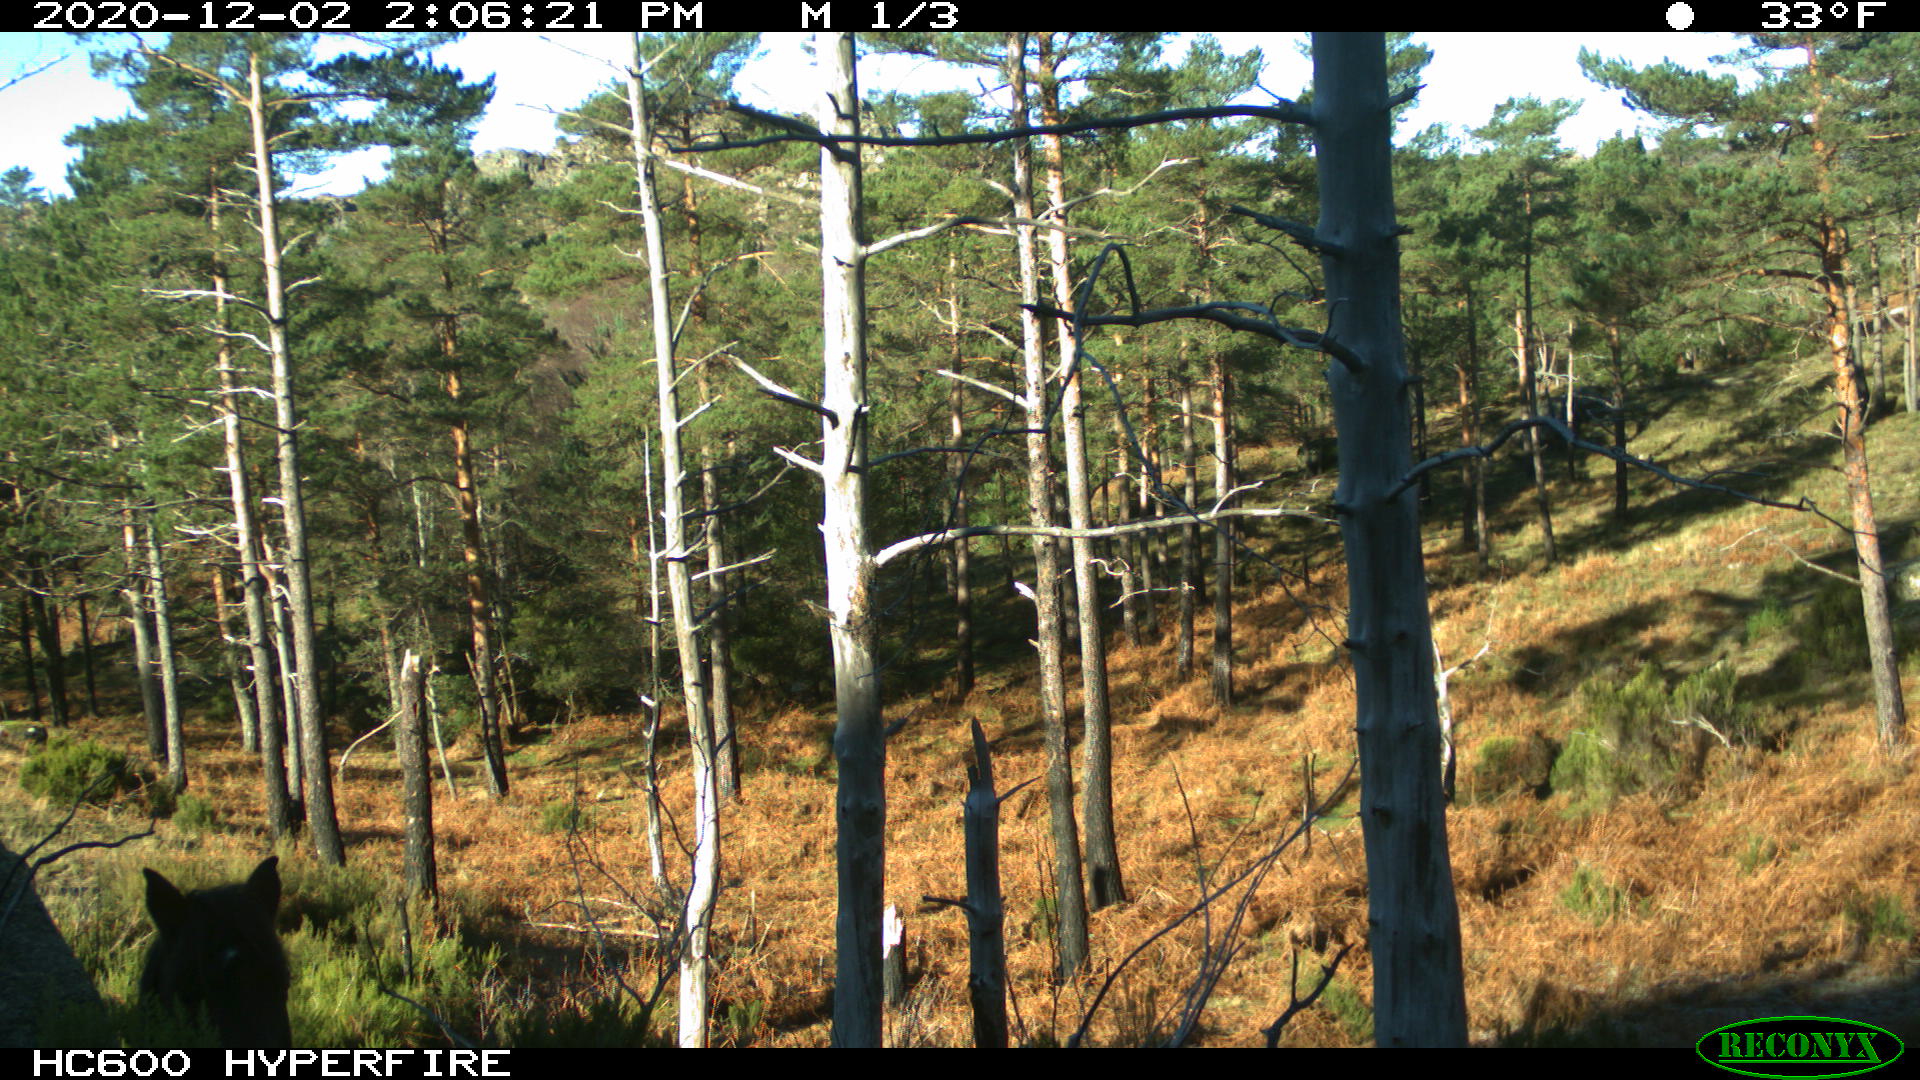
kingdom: Animalia
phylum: Chordata
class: Mammalia
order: Perissodactyla
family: Equidae
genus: Equus
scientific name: Equus caballus
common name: Horse
